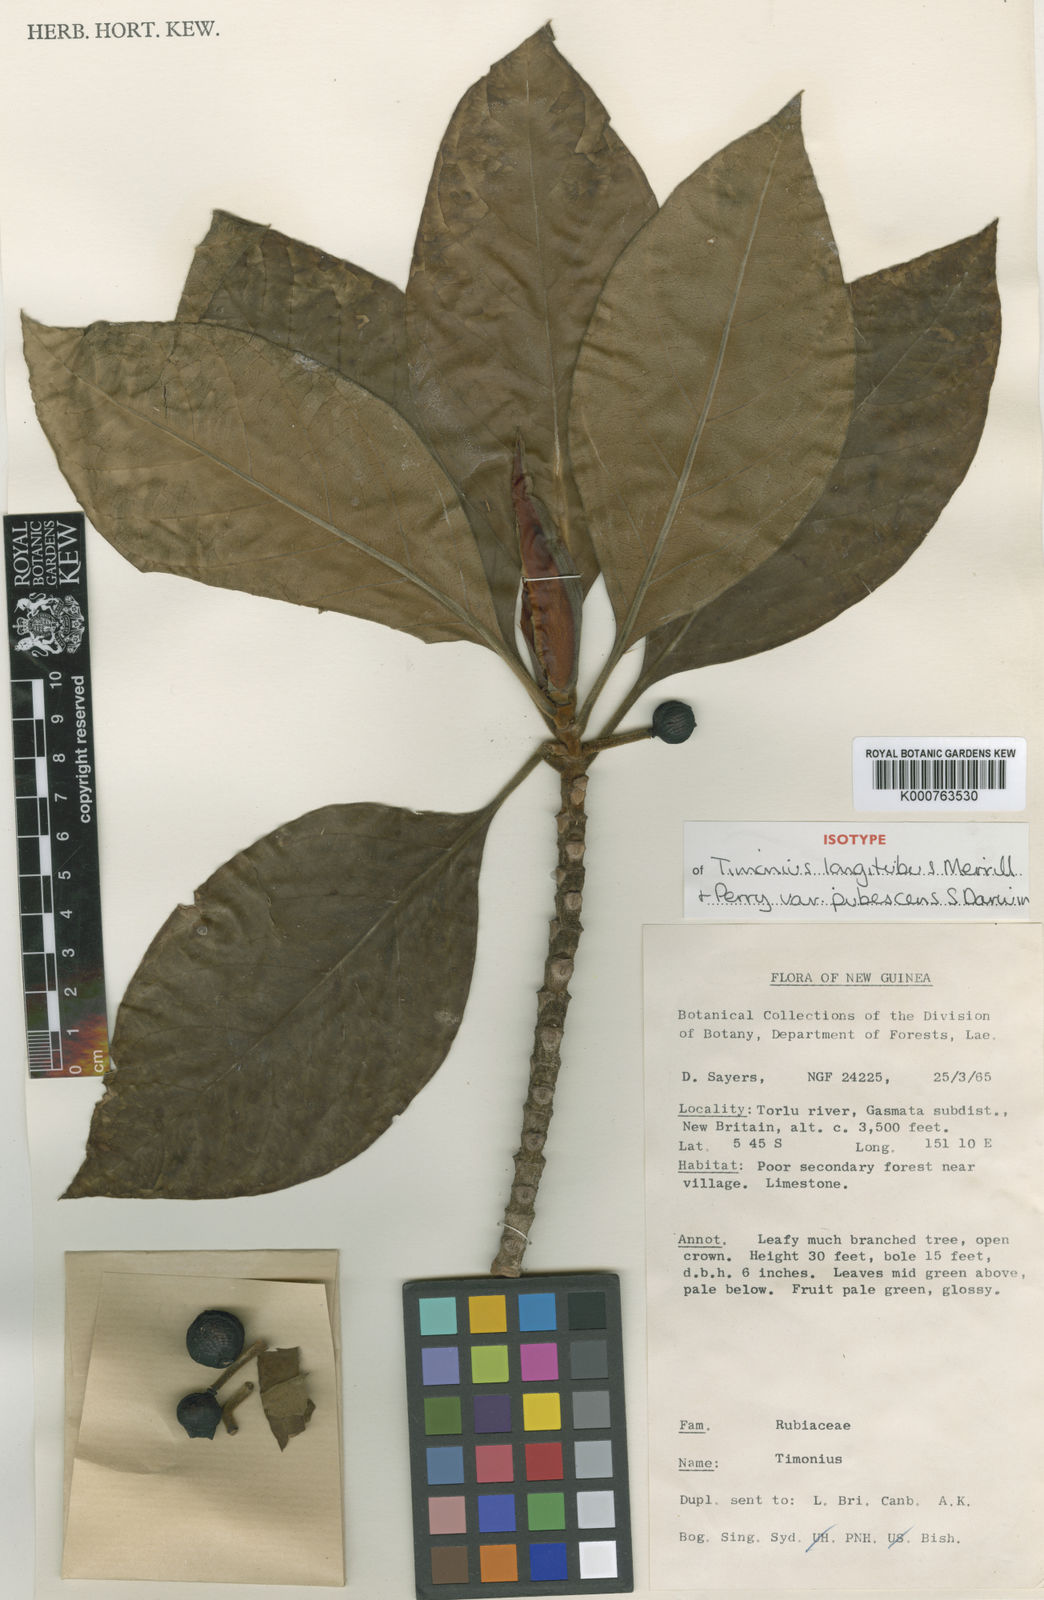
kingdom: Plantae
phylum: Tracheophyta
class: Magnoliopsida
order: Gentianales
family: Rubiaceae
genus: Timonius
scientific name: Timonius longitubus
